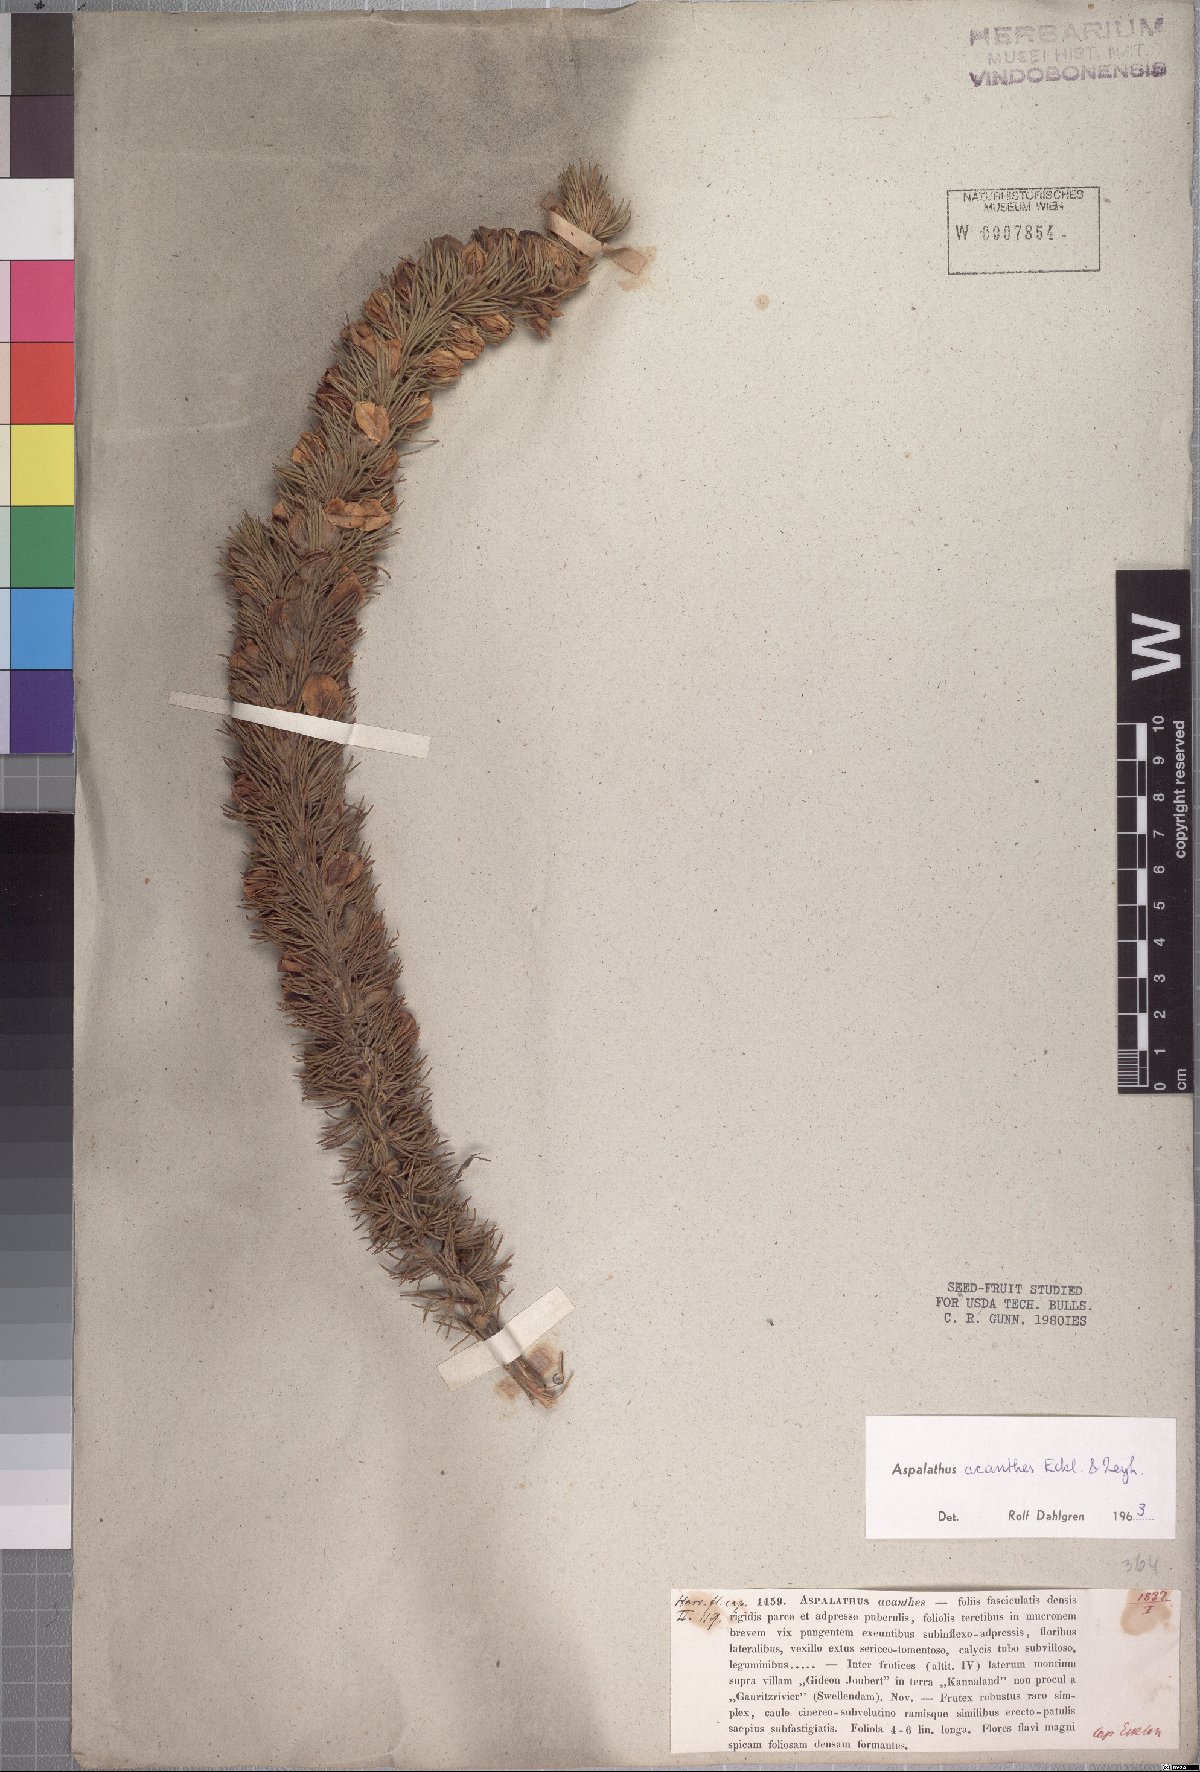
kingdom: Plantae
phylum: Tracheophyta
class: Magnoliopsida
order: Fabales
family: Fabaceae
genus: Aspalathus
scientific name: Aspalathus acanthes
